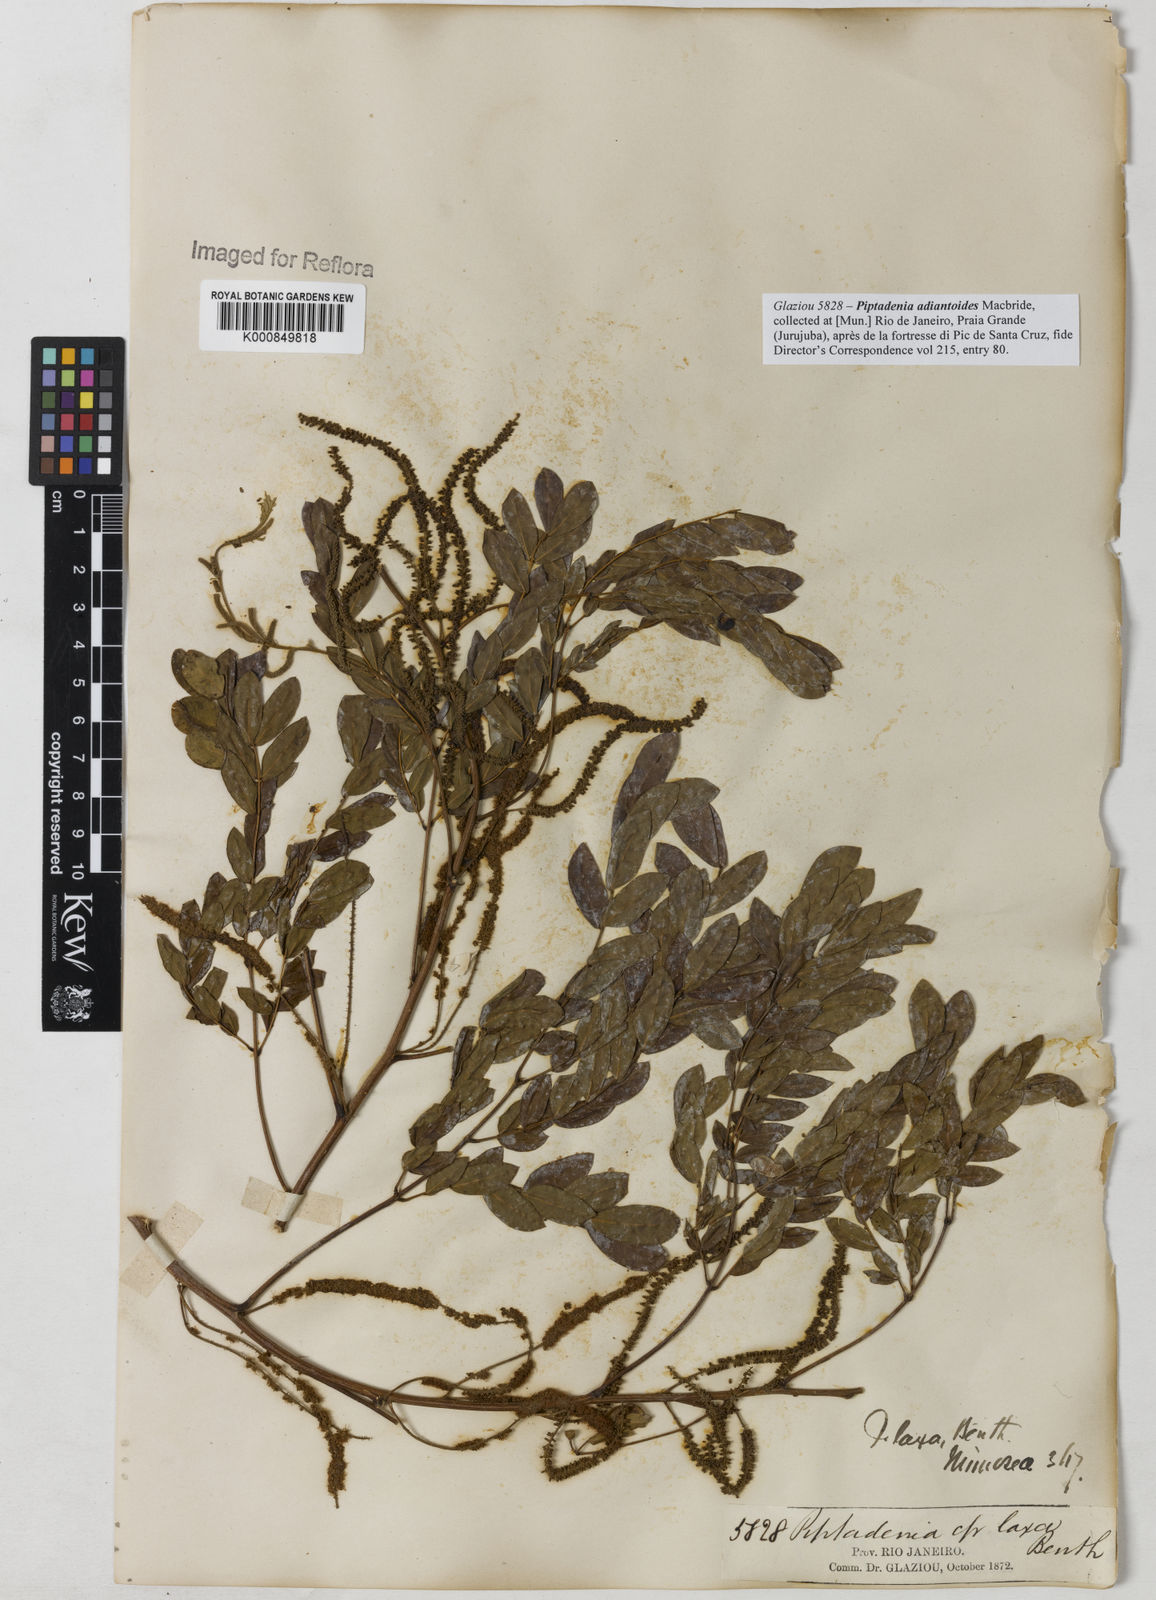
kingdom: Plantae
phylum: Tracheophyta
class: Magnoliopsida
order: Fabales
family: Fabaceae
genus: Piptadenia
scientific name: Piptadenia adiantoides
